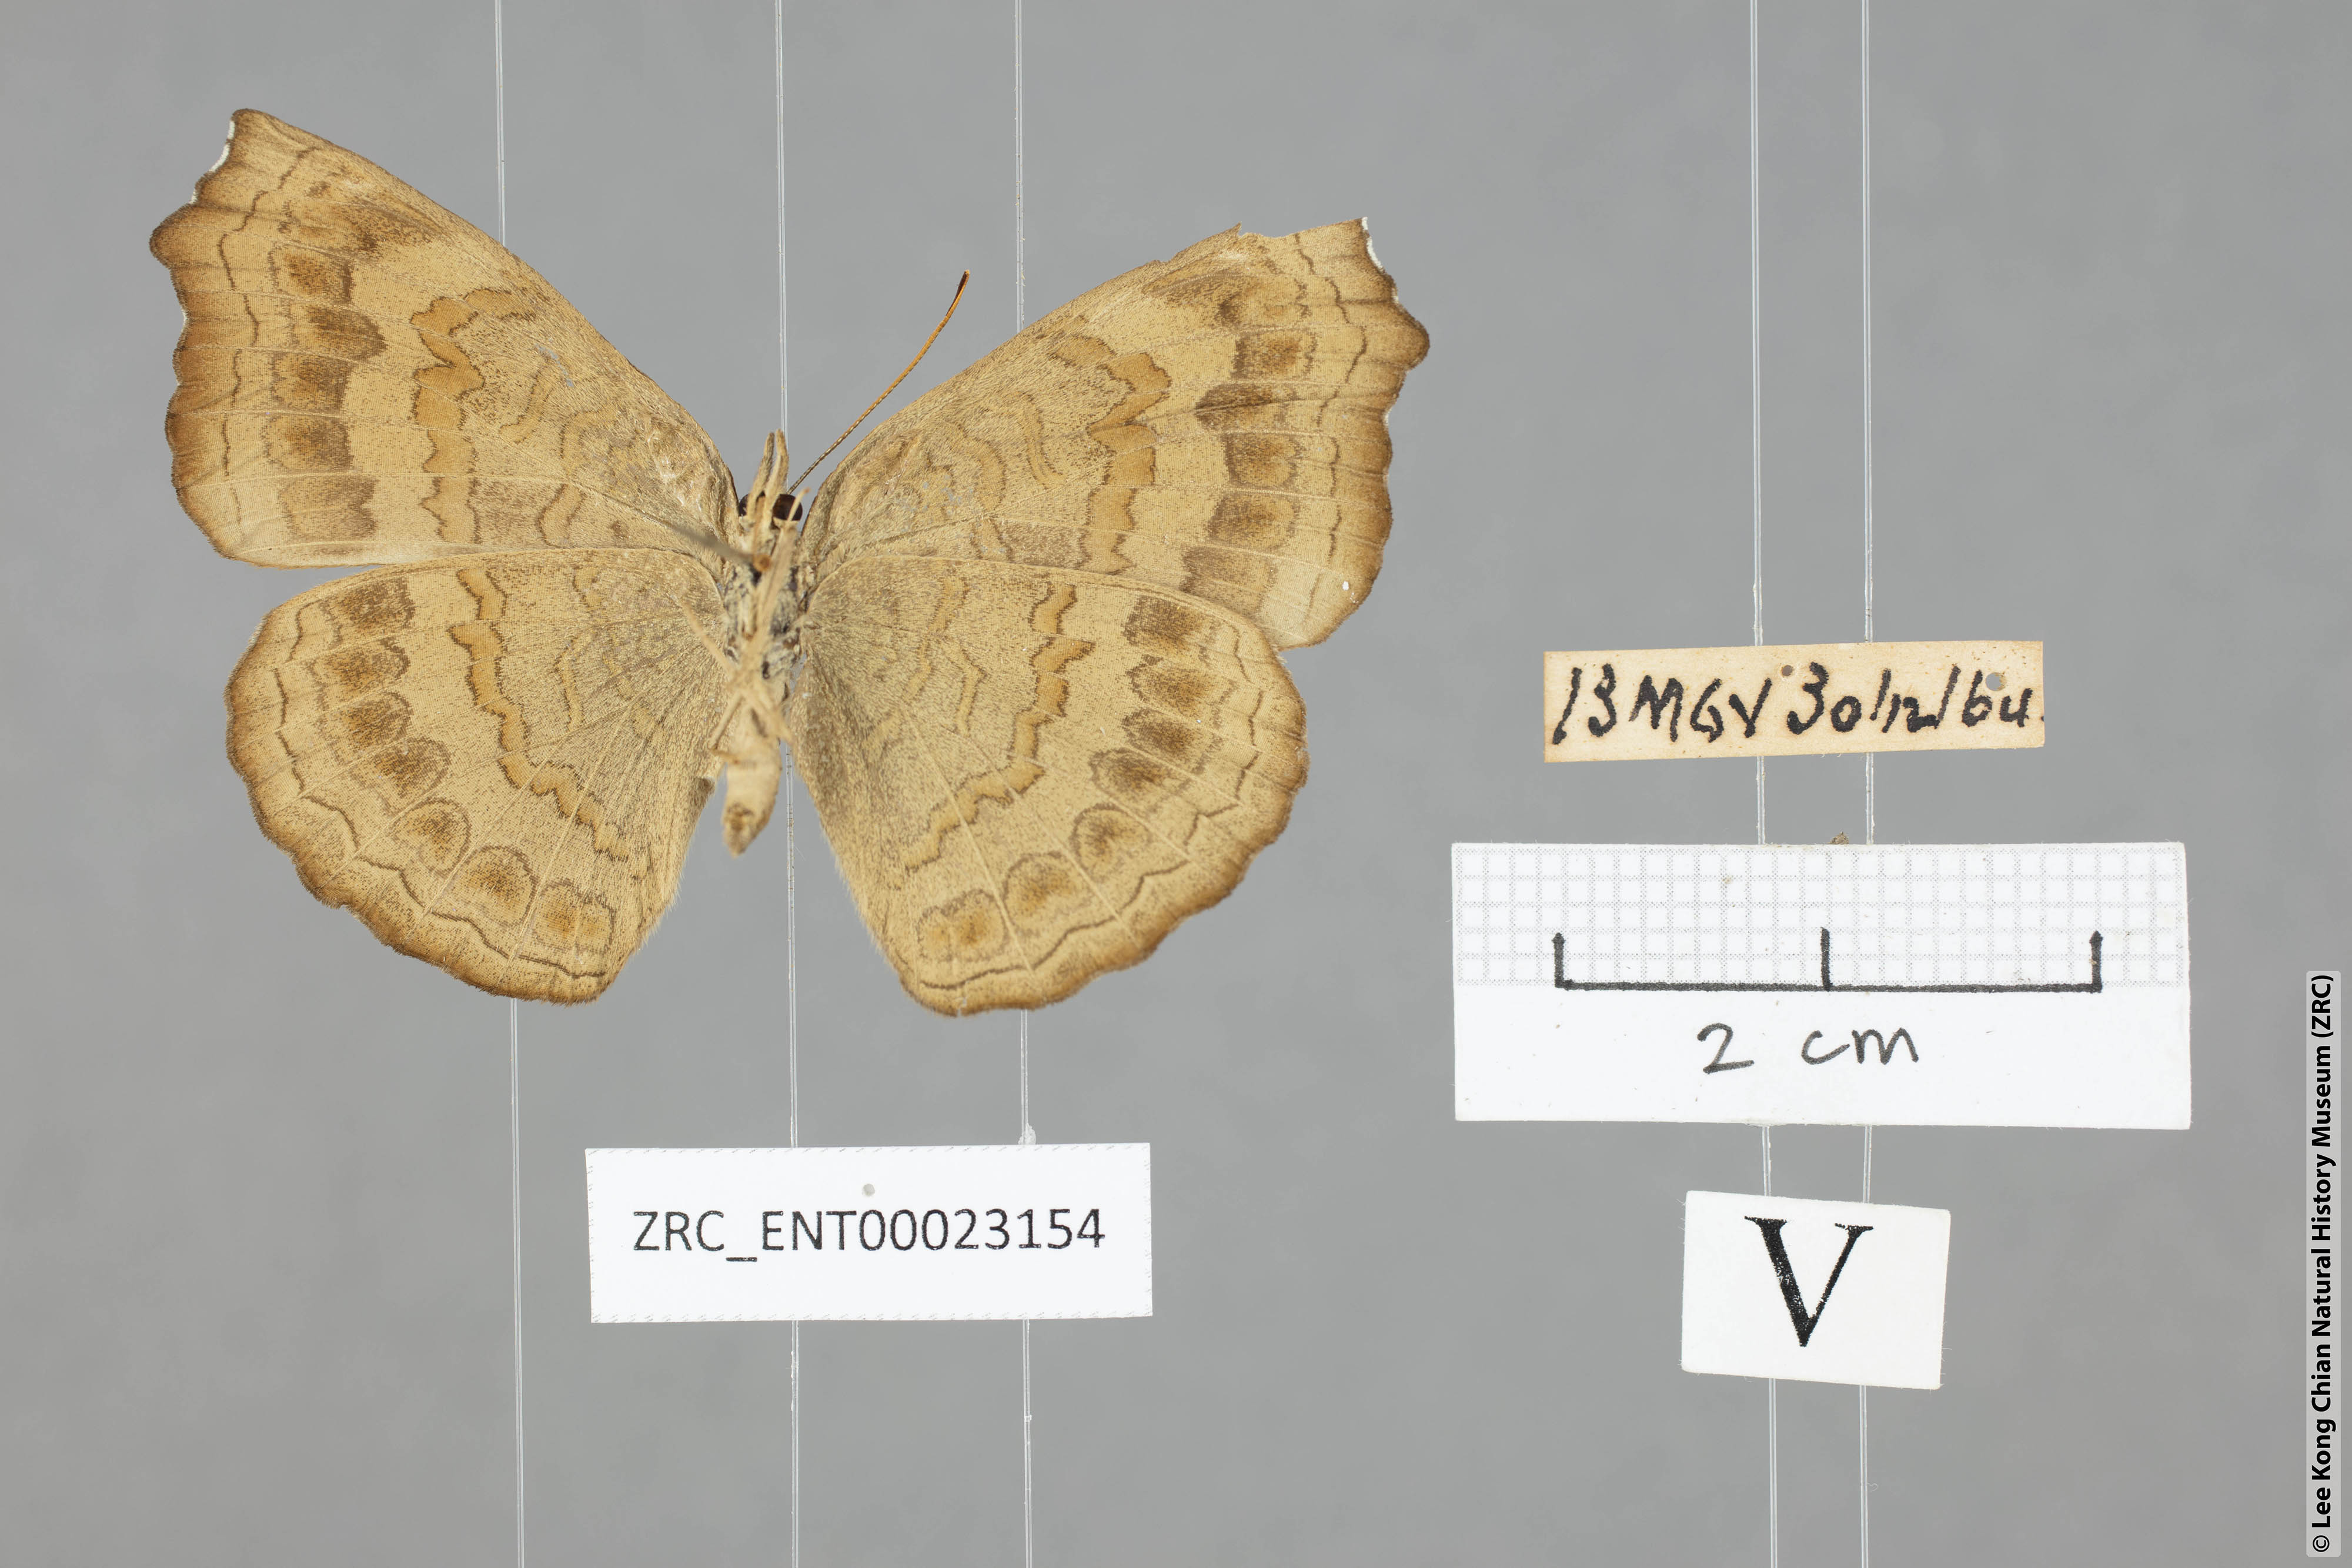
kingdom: Animalia
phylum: Arthropoda
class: Insecta
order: Lepidoptera
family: Nymphalidae
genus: Ariadne
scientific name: Ariadne isaeus
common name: Malayan castor
